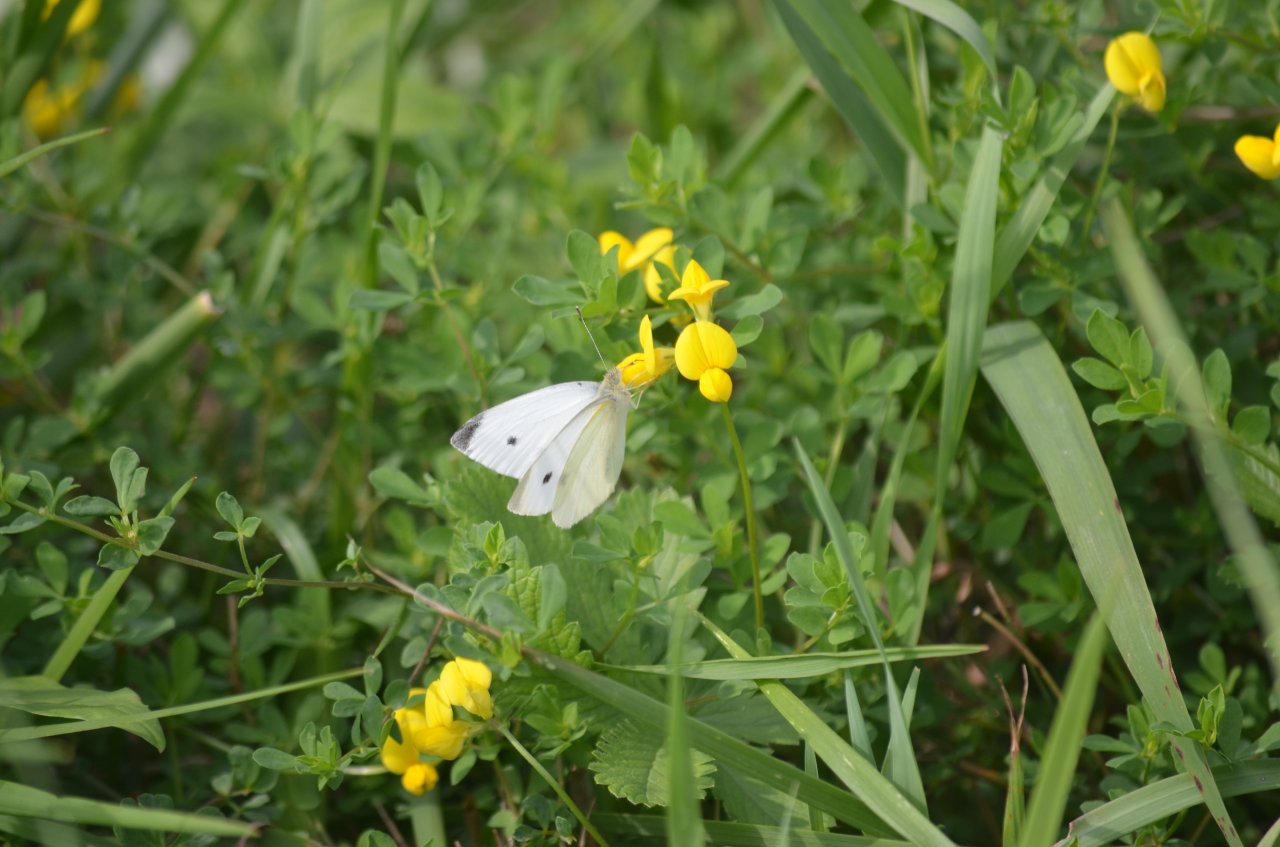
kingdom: Animalia
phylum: Arthropoda
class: Insecta
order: Lepidoptera
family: Pieridae
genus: Pieris
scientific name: Pieris rapae
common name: Cabbage White
